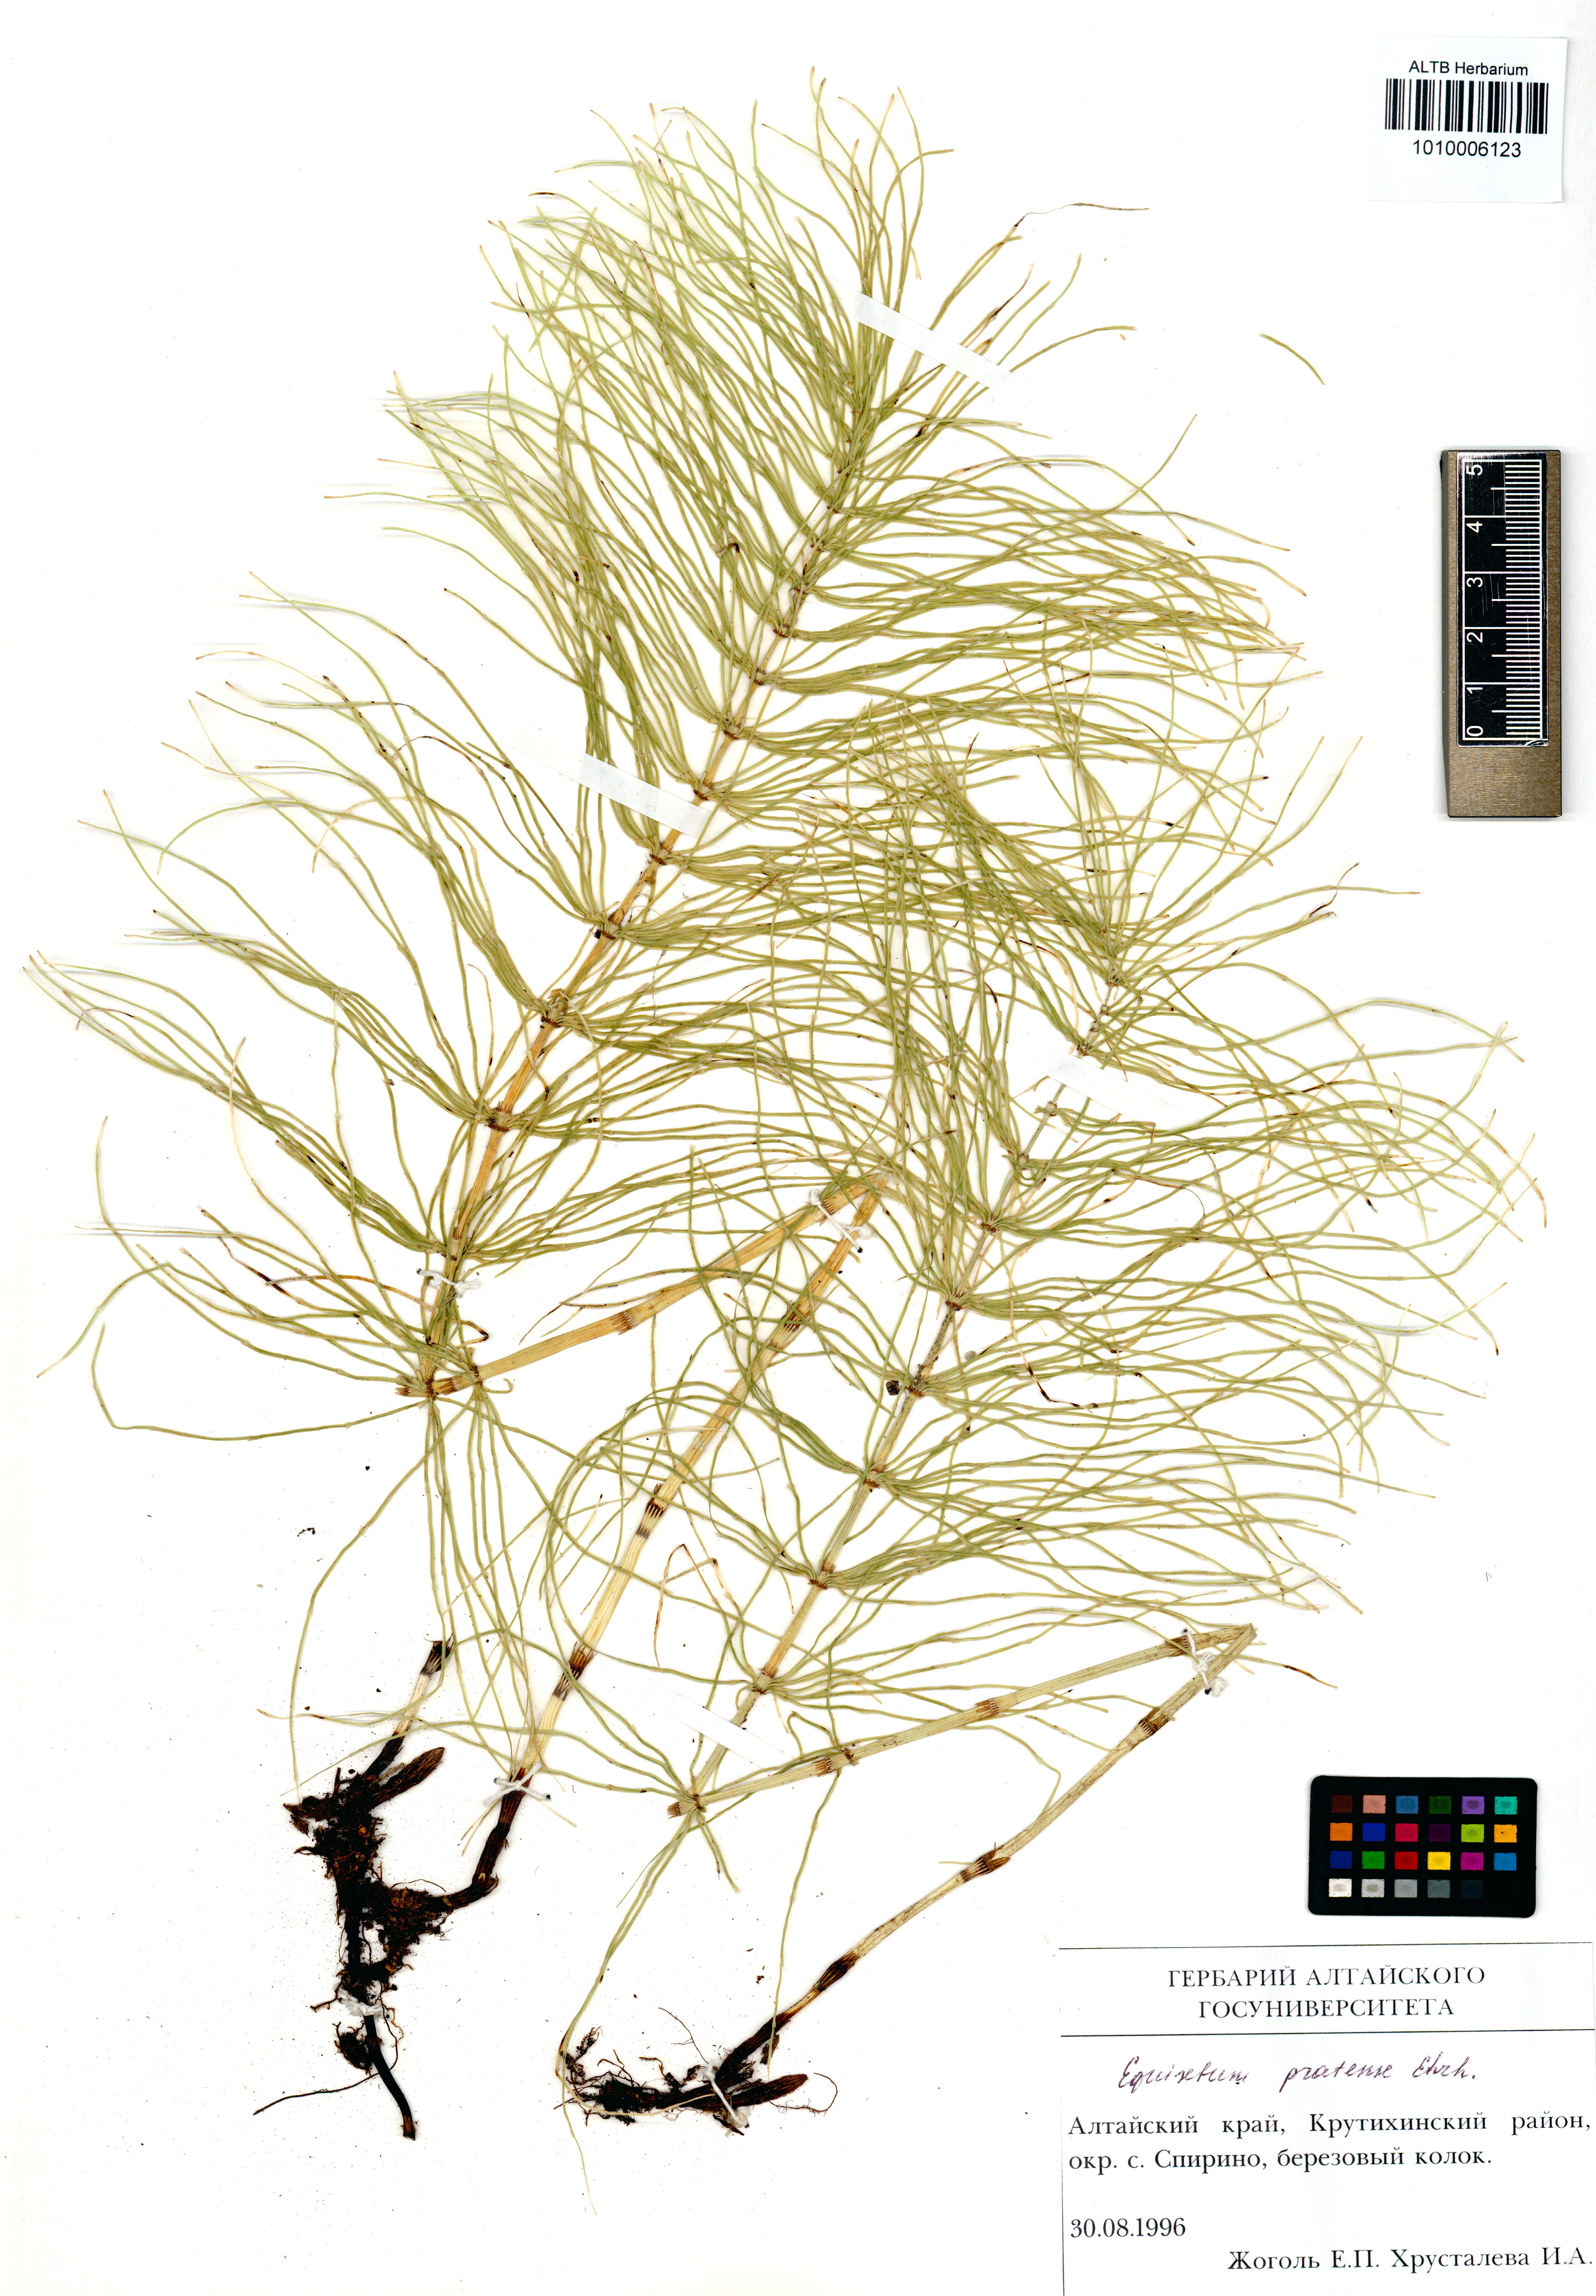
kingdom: Plantae
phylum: Tracheophyta
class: Polypodiopsida
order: Equisetales
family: Equisetaceae
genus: Equisetum
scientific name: Equisetum pratense
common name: Meadow horsetail
